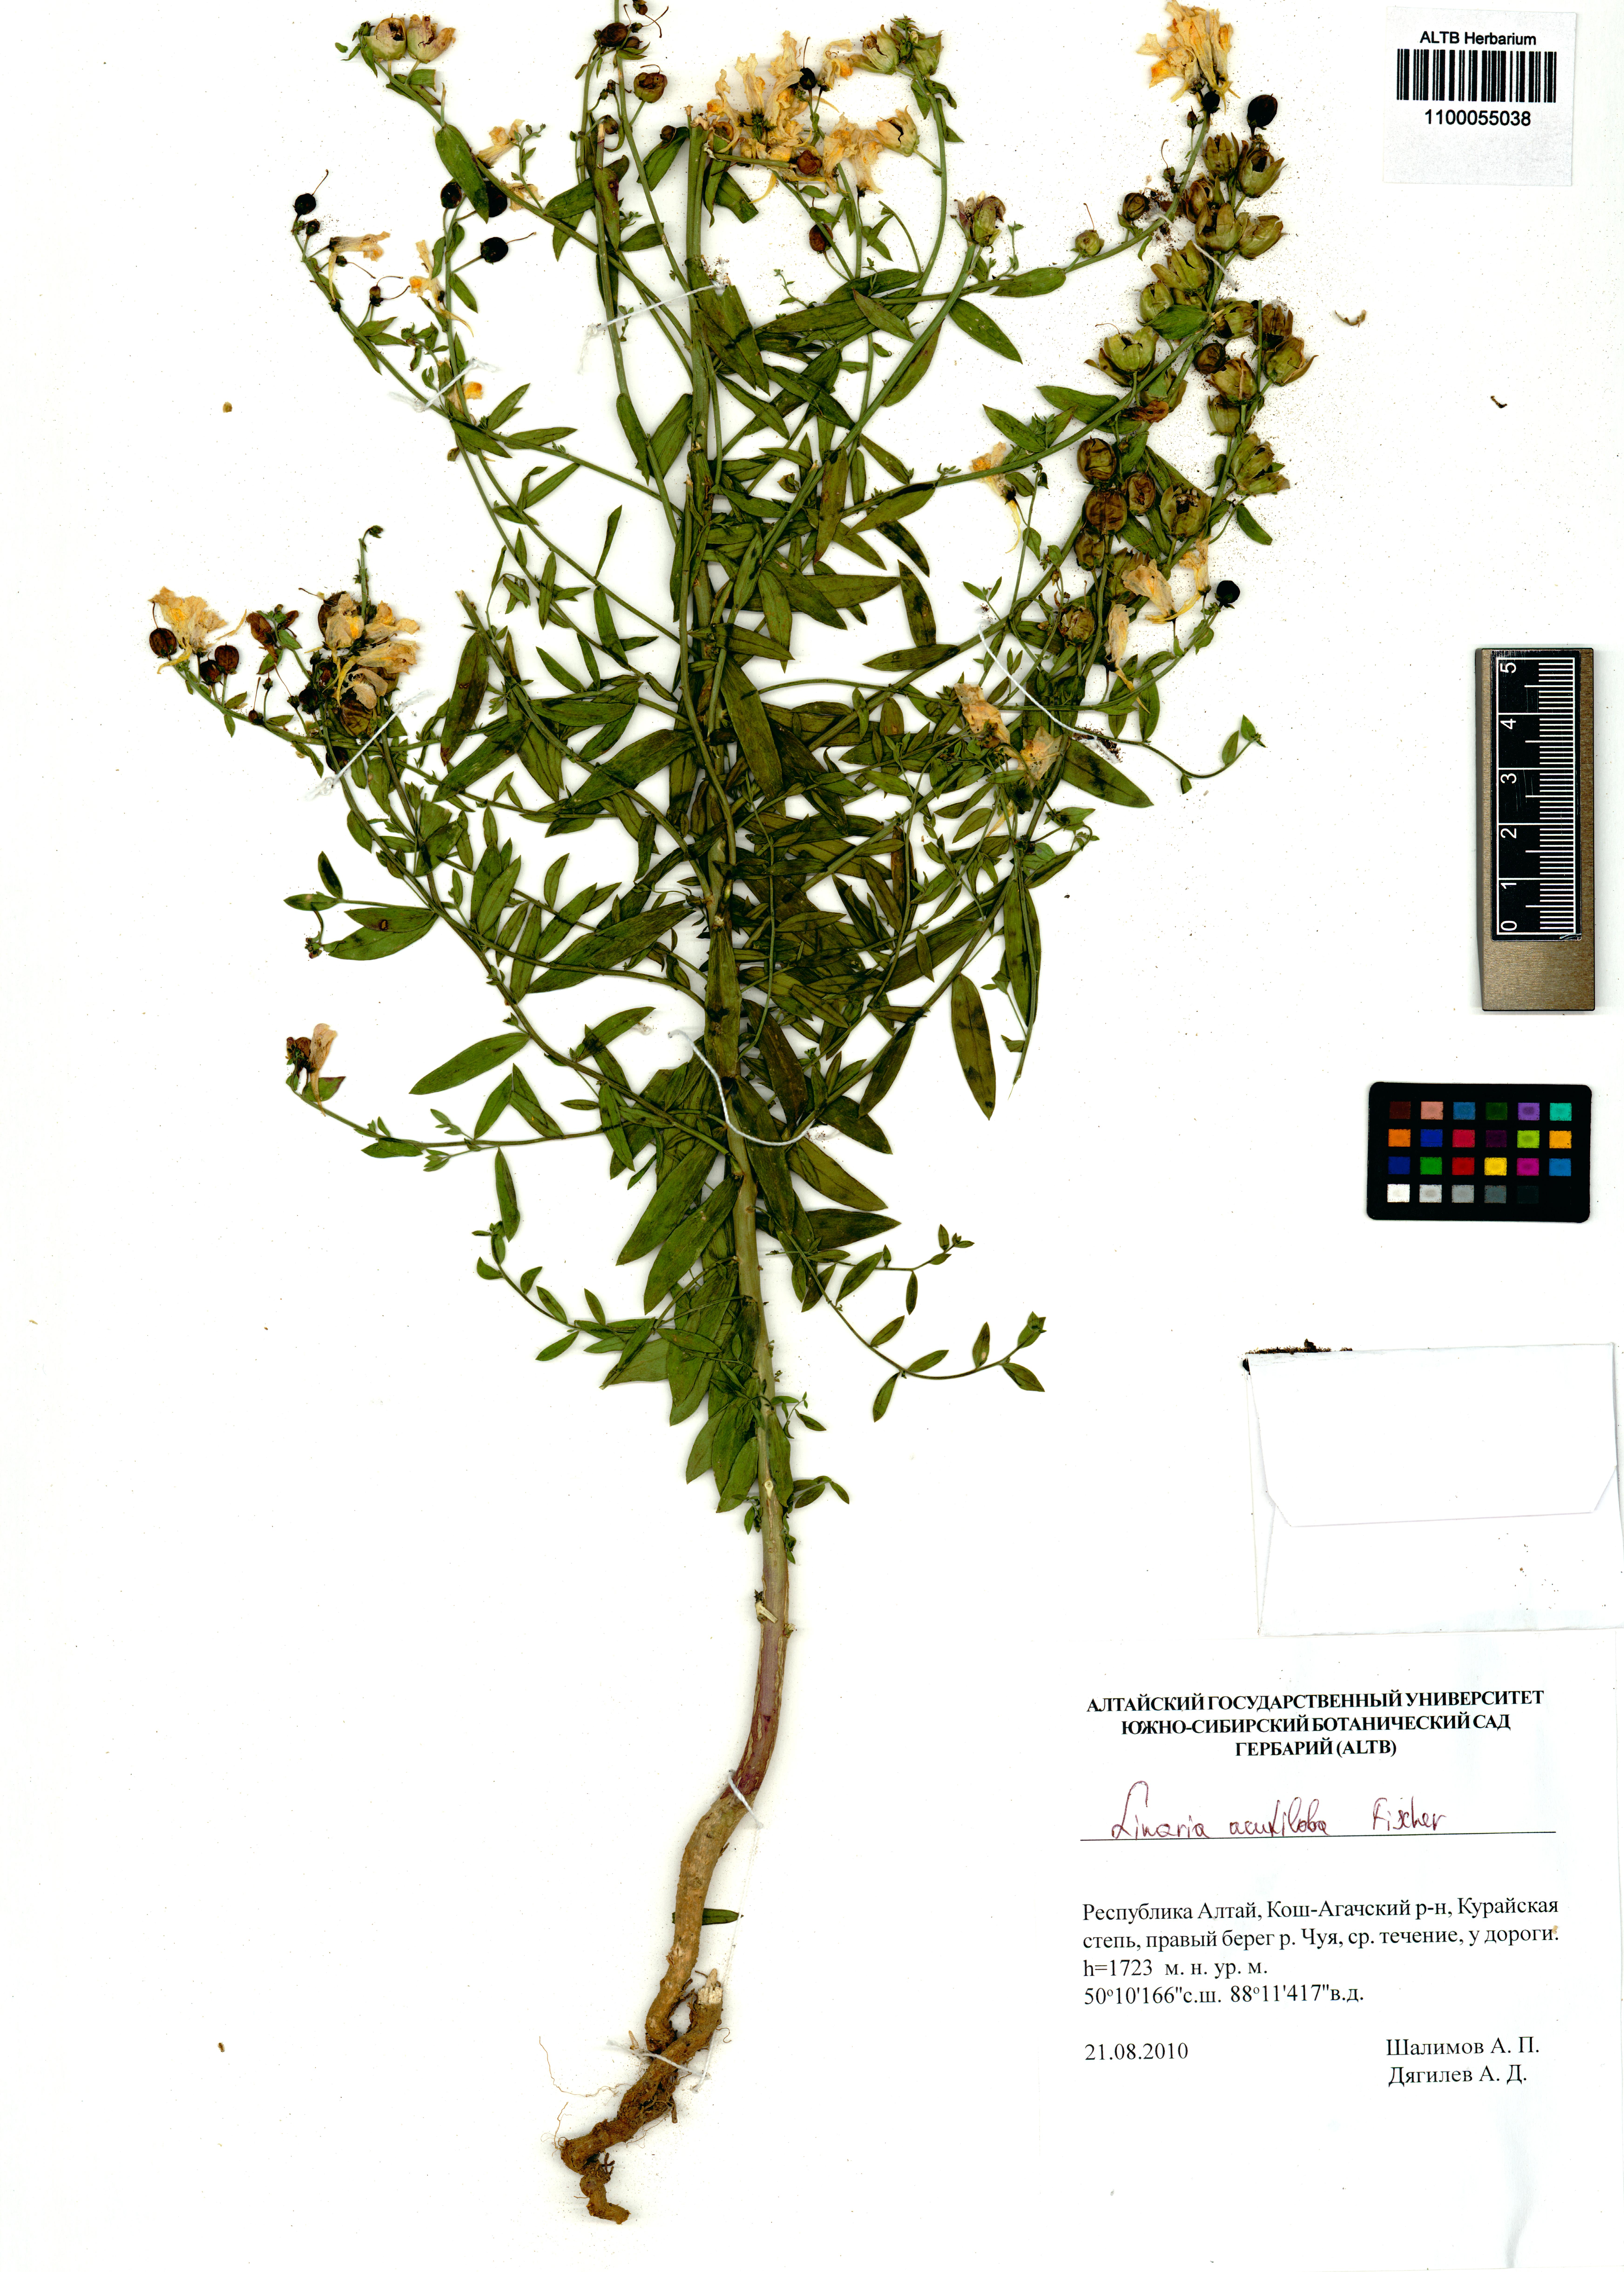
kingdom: Plantae
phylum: Tracheophyta
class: Magnoliopsida
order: Lamiales
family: Plantaginaceae
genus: Linaria
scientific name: Linaria acutiloba
